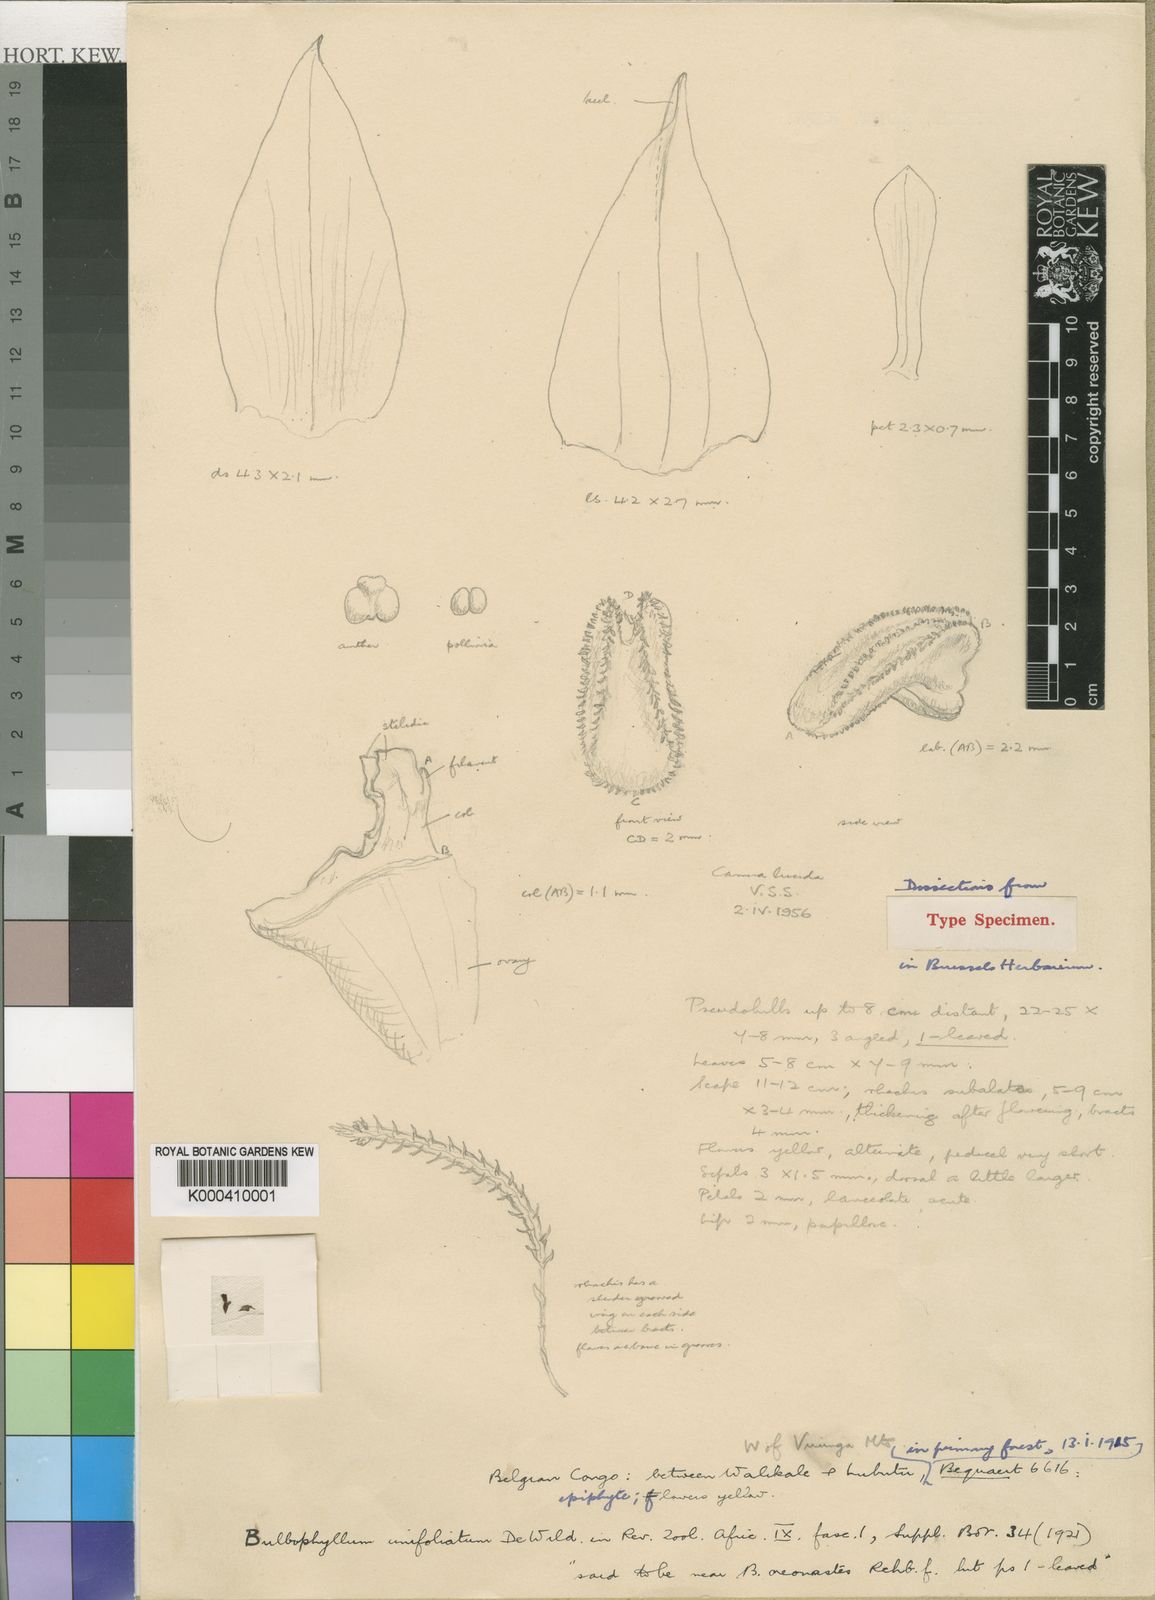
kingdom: Plantae
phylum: Tracheophyta
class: Liliopsida
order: Asparagales
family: Orchidaceae
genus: Bulbophyllum
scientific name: Bulbophyllum unifoliatum
